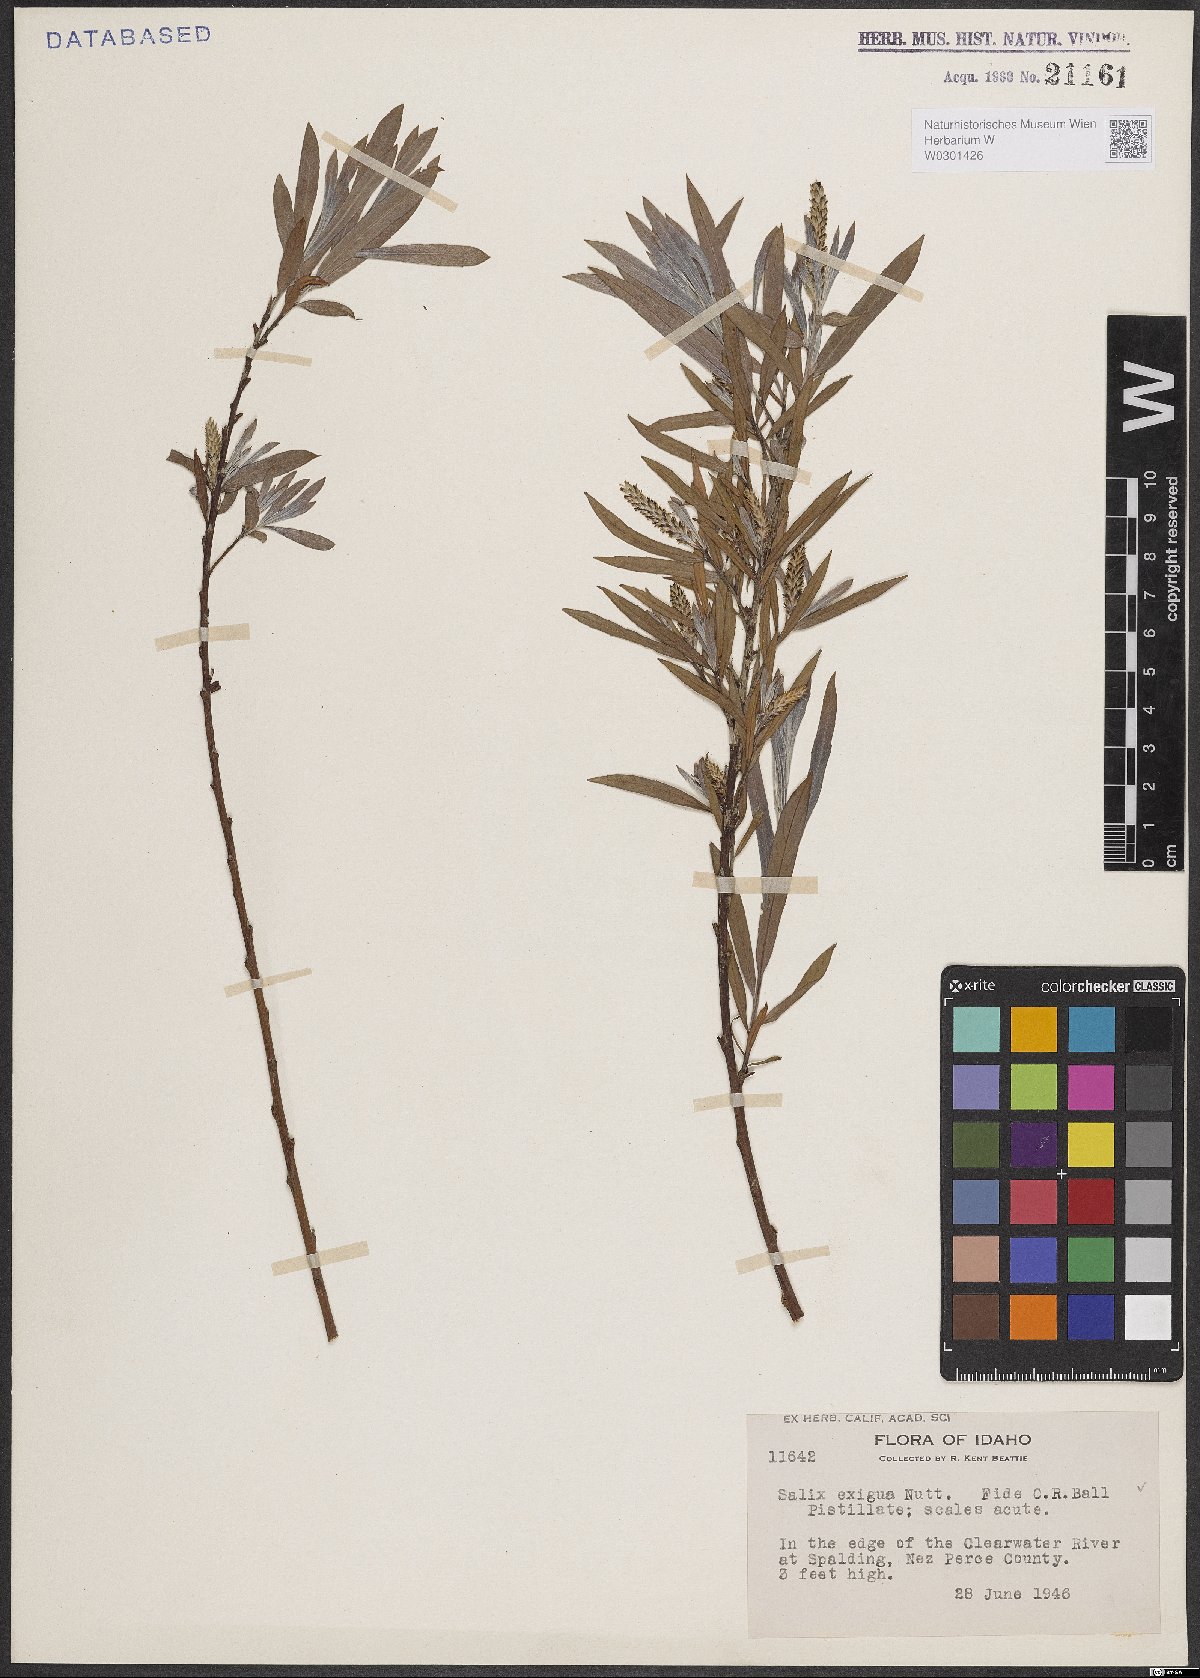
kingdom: Plantae
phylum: Tracheophyta
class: Magnoliopsida
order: Malpighiales
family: Salicaceae
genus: Salix
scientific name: Salix exigua
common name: Coyote willow
